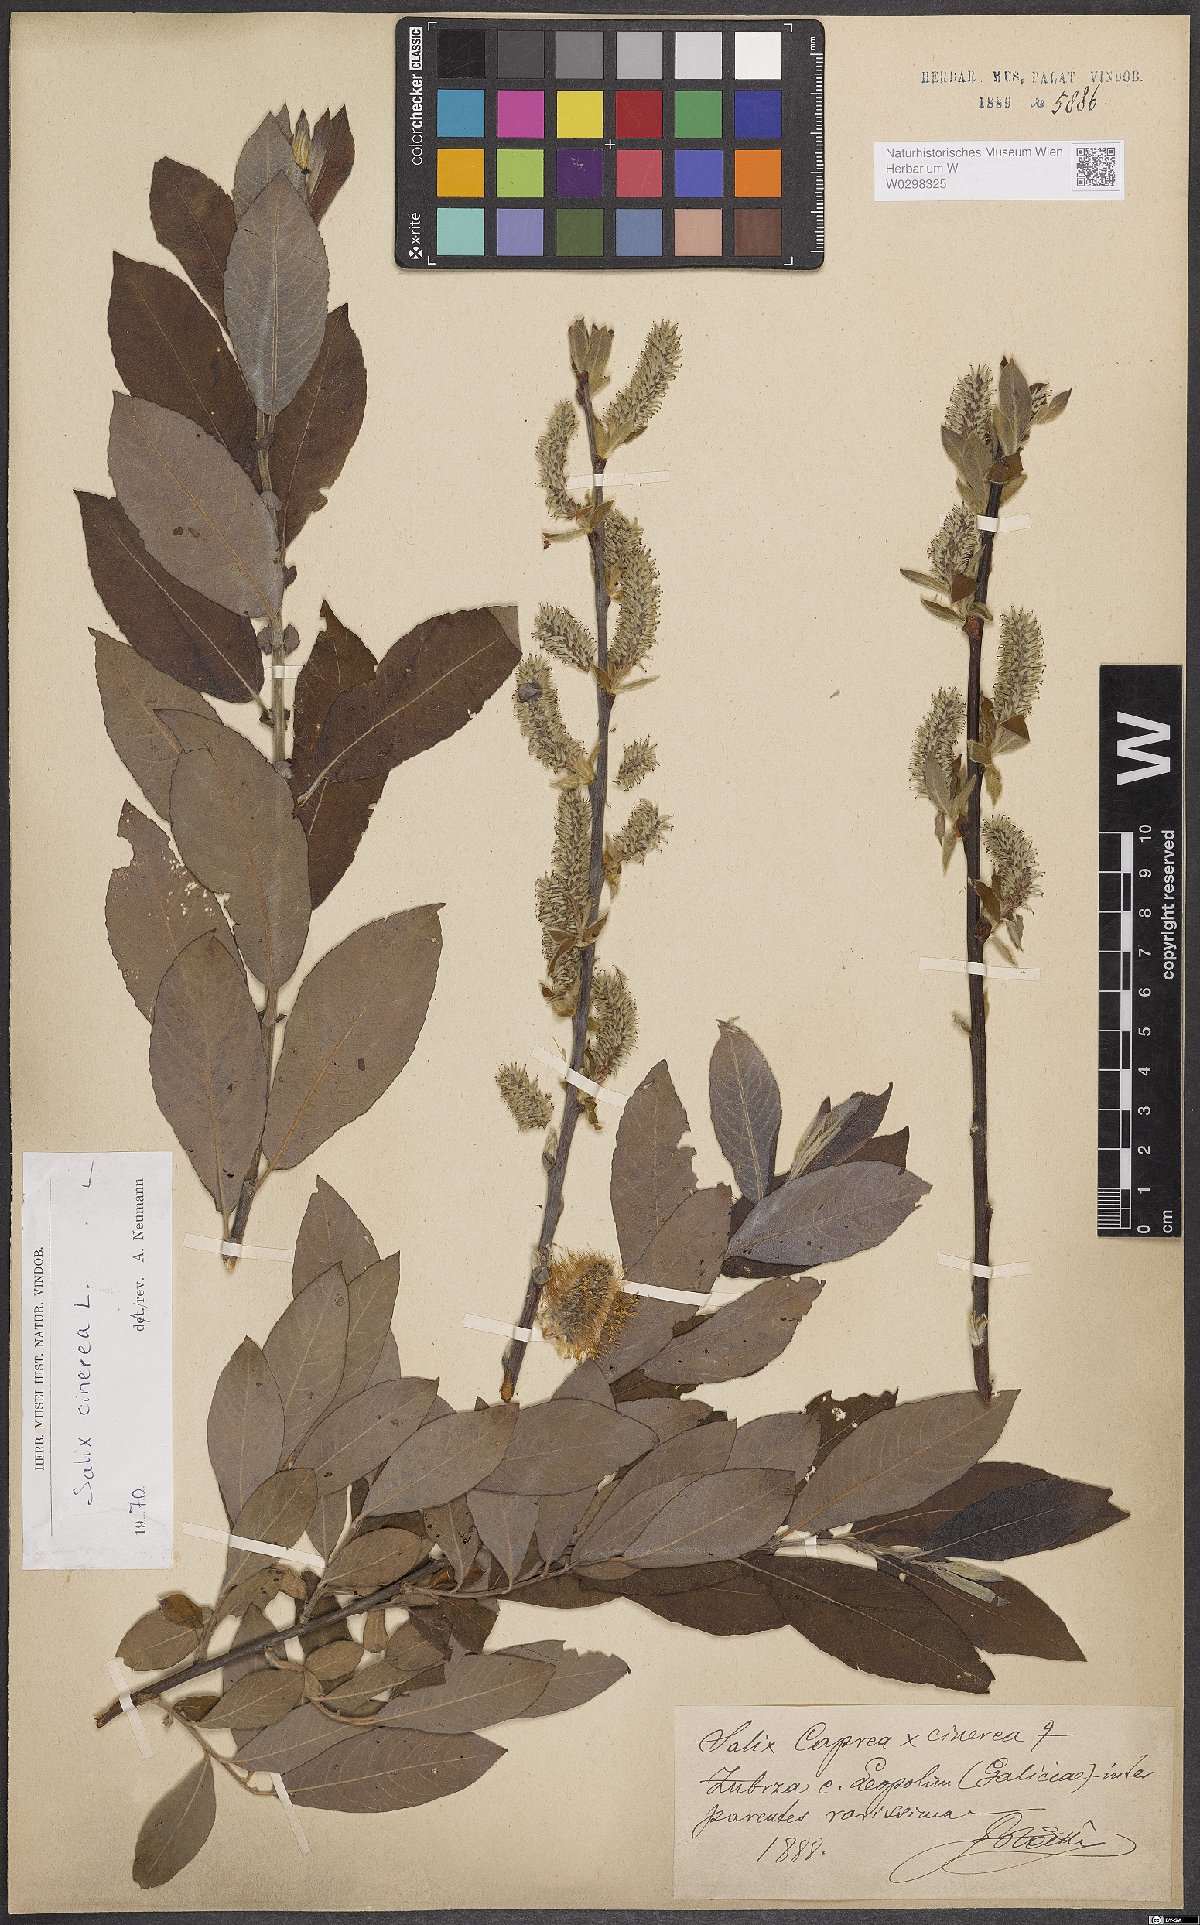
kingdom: Plantae
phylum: Tracheophyta
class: Magnoliopsida
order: Malpighiales
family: Salicaceae
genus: Salix
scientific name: Salix cinerea
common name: Common sallow
